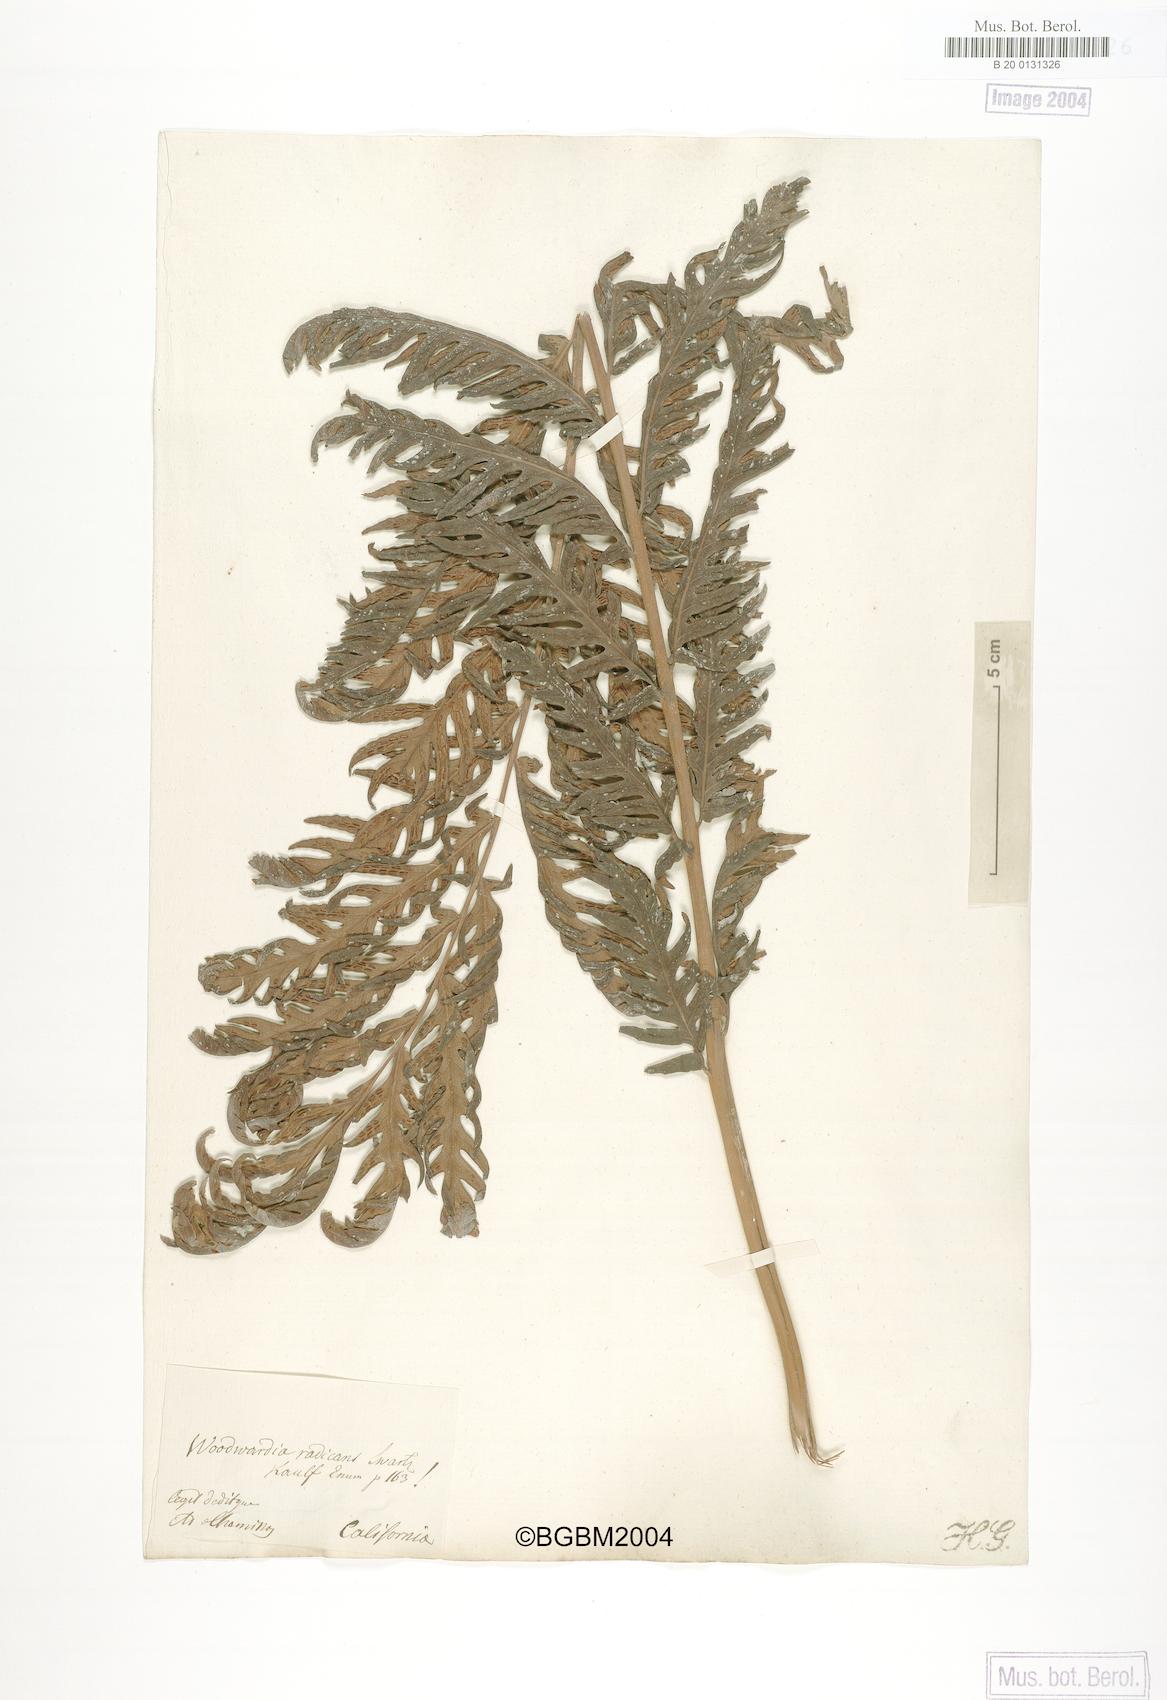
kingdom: Plantae
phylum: Tracheophyta
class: Polypodiopsida
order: Polypodiales
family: Blechnaceae
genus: Woodwardia
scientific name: Woodwardia radicans
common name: Rooting chainfern
